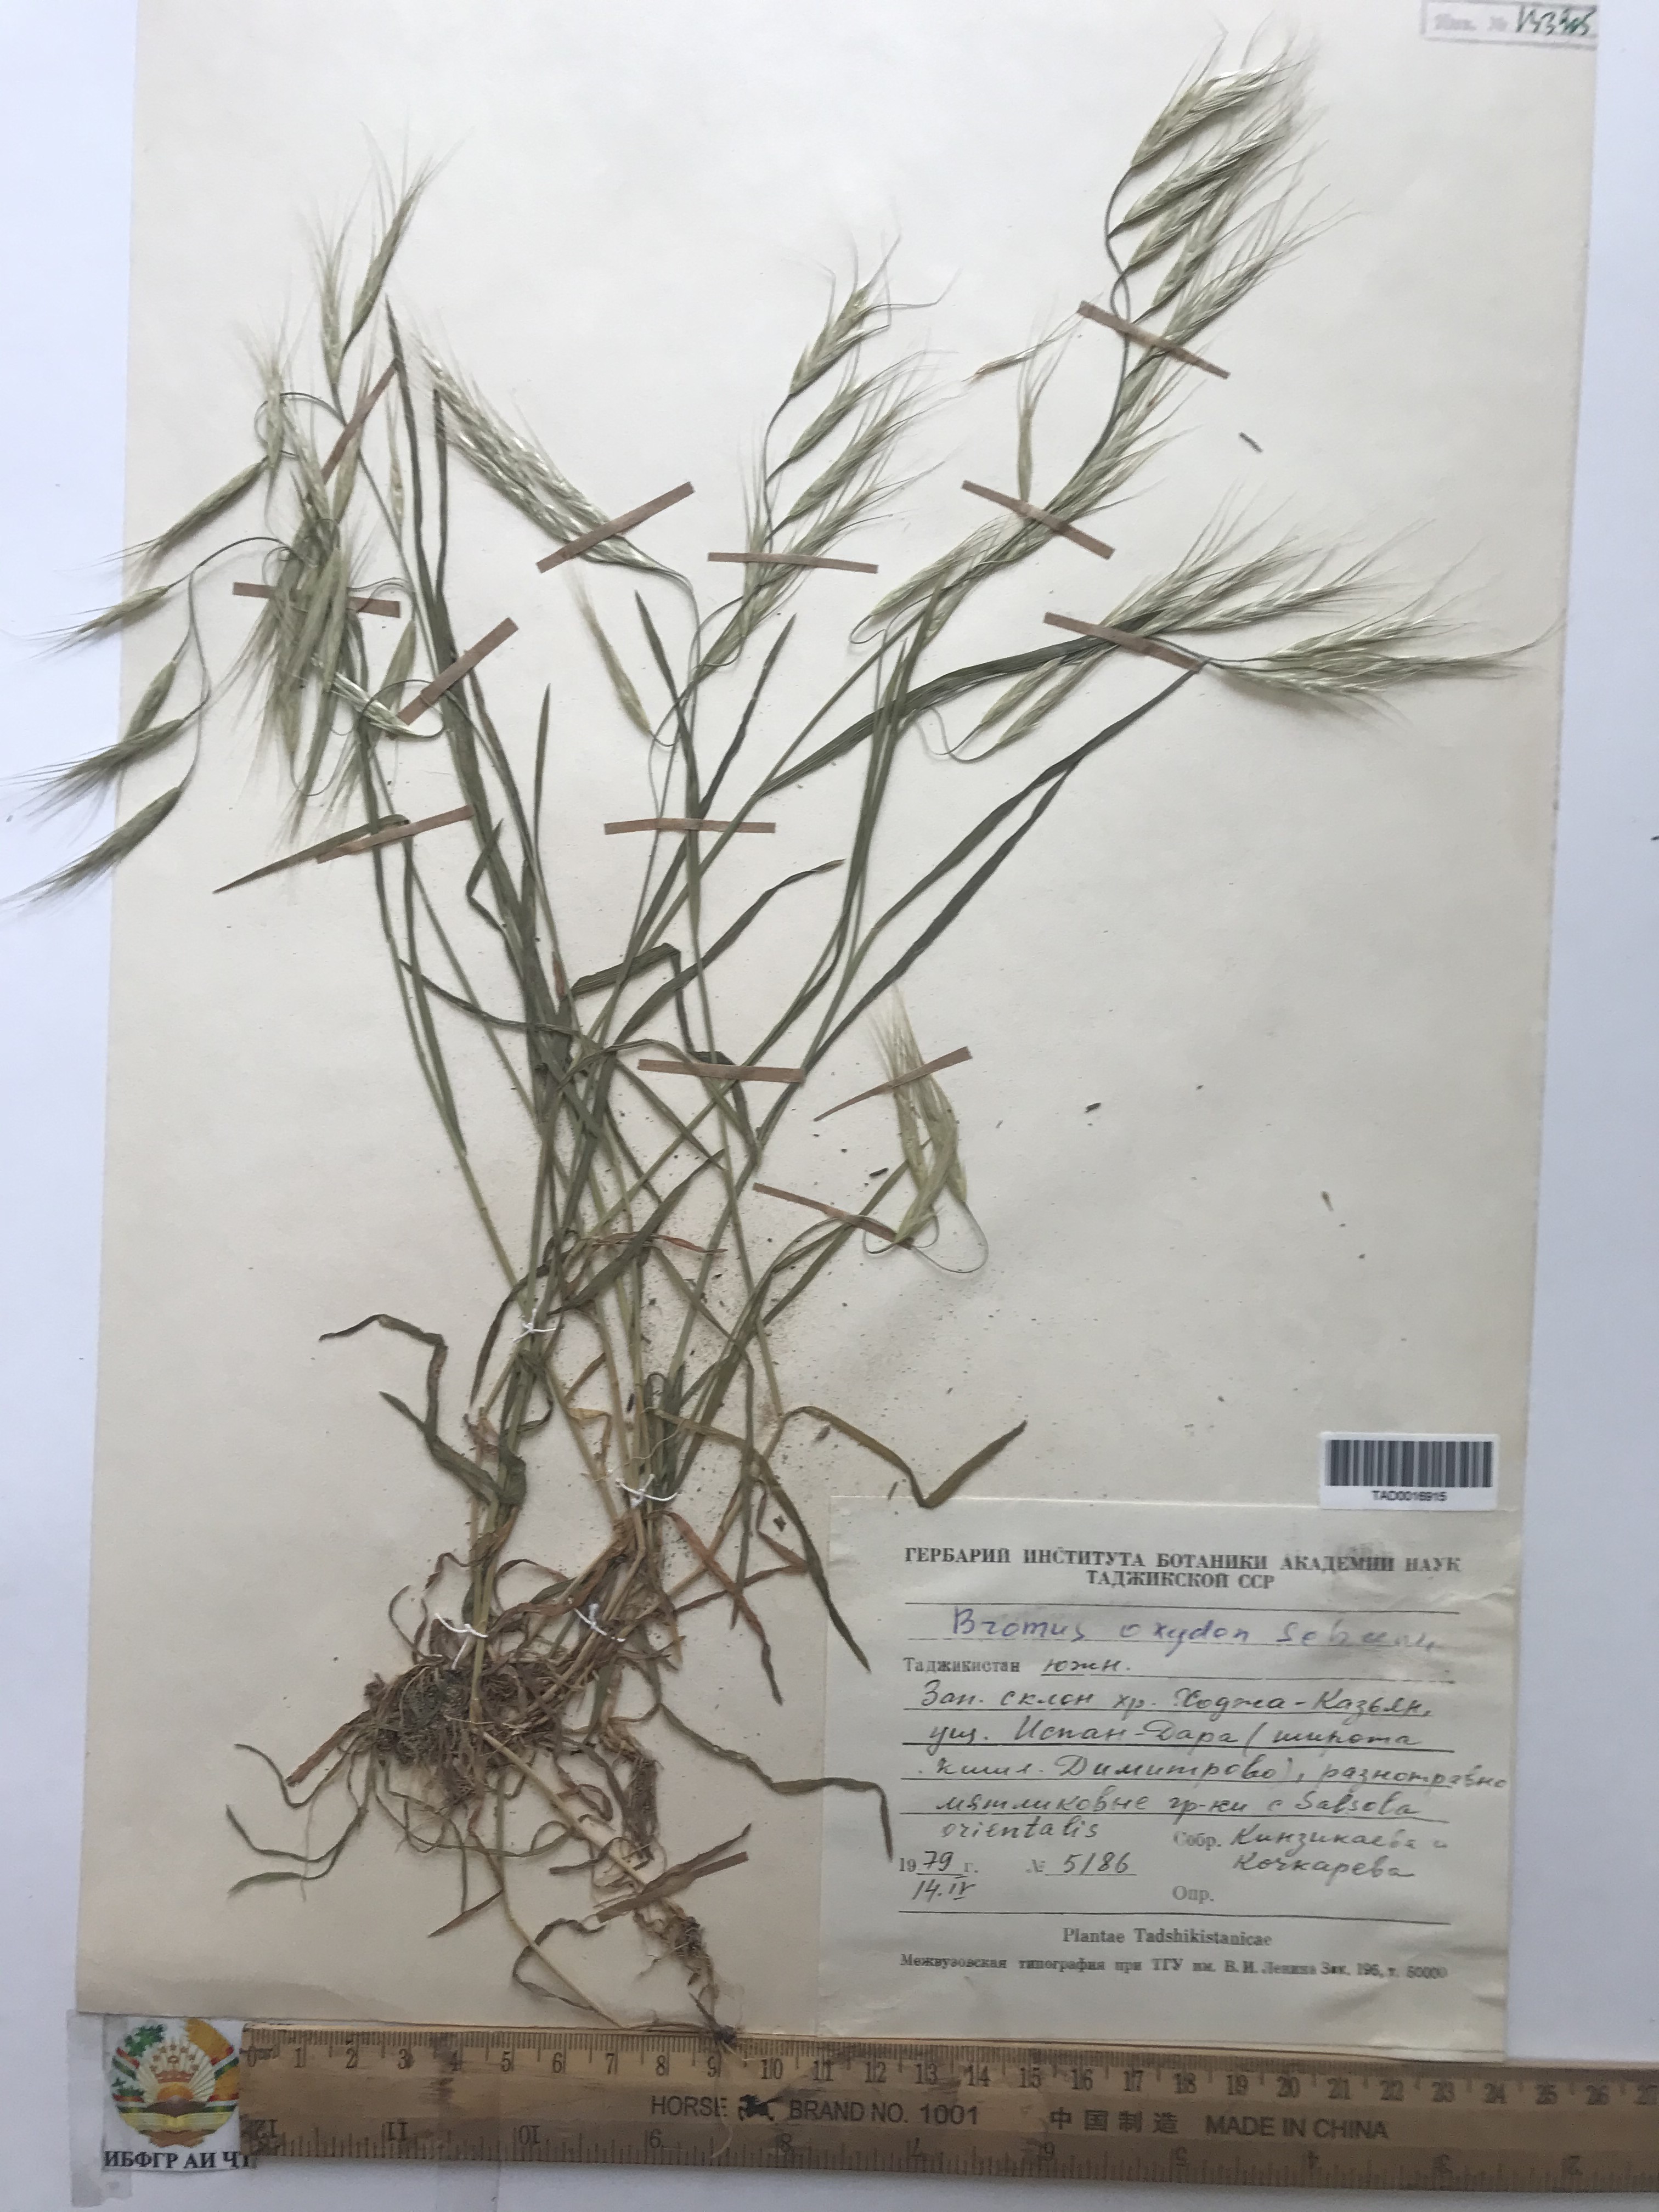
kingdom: Plantae
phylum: Tracheophyta
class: Liliopsida
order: Poales
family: Poaceae
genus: Bromus
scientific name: Bromus oxyodon
